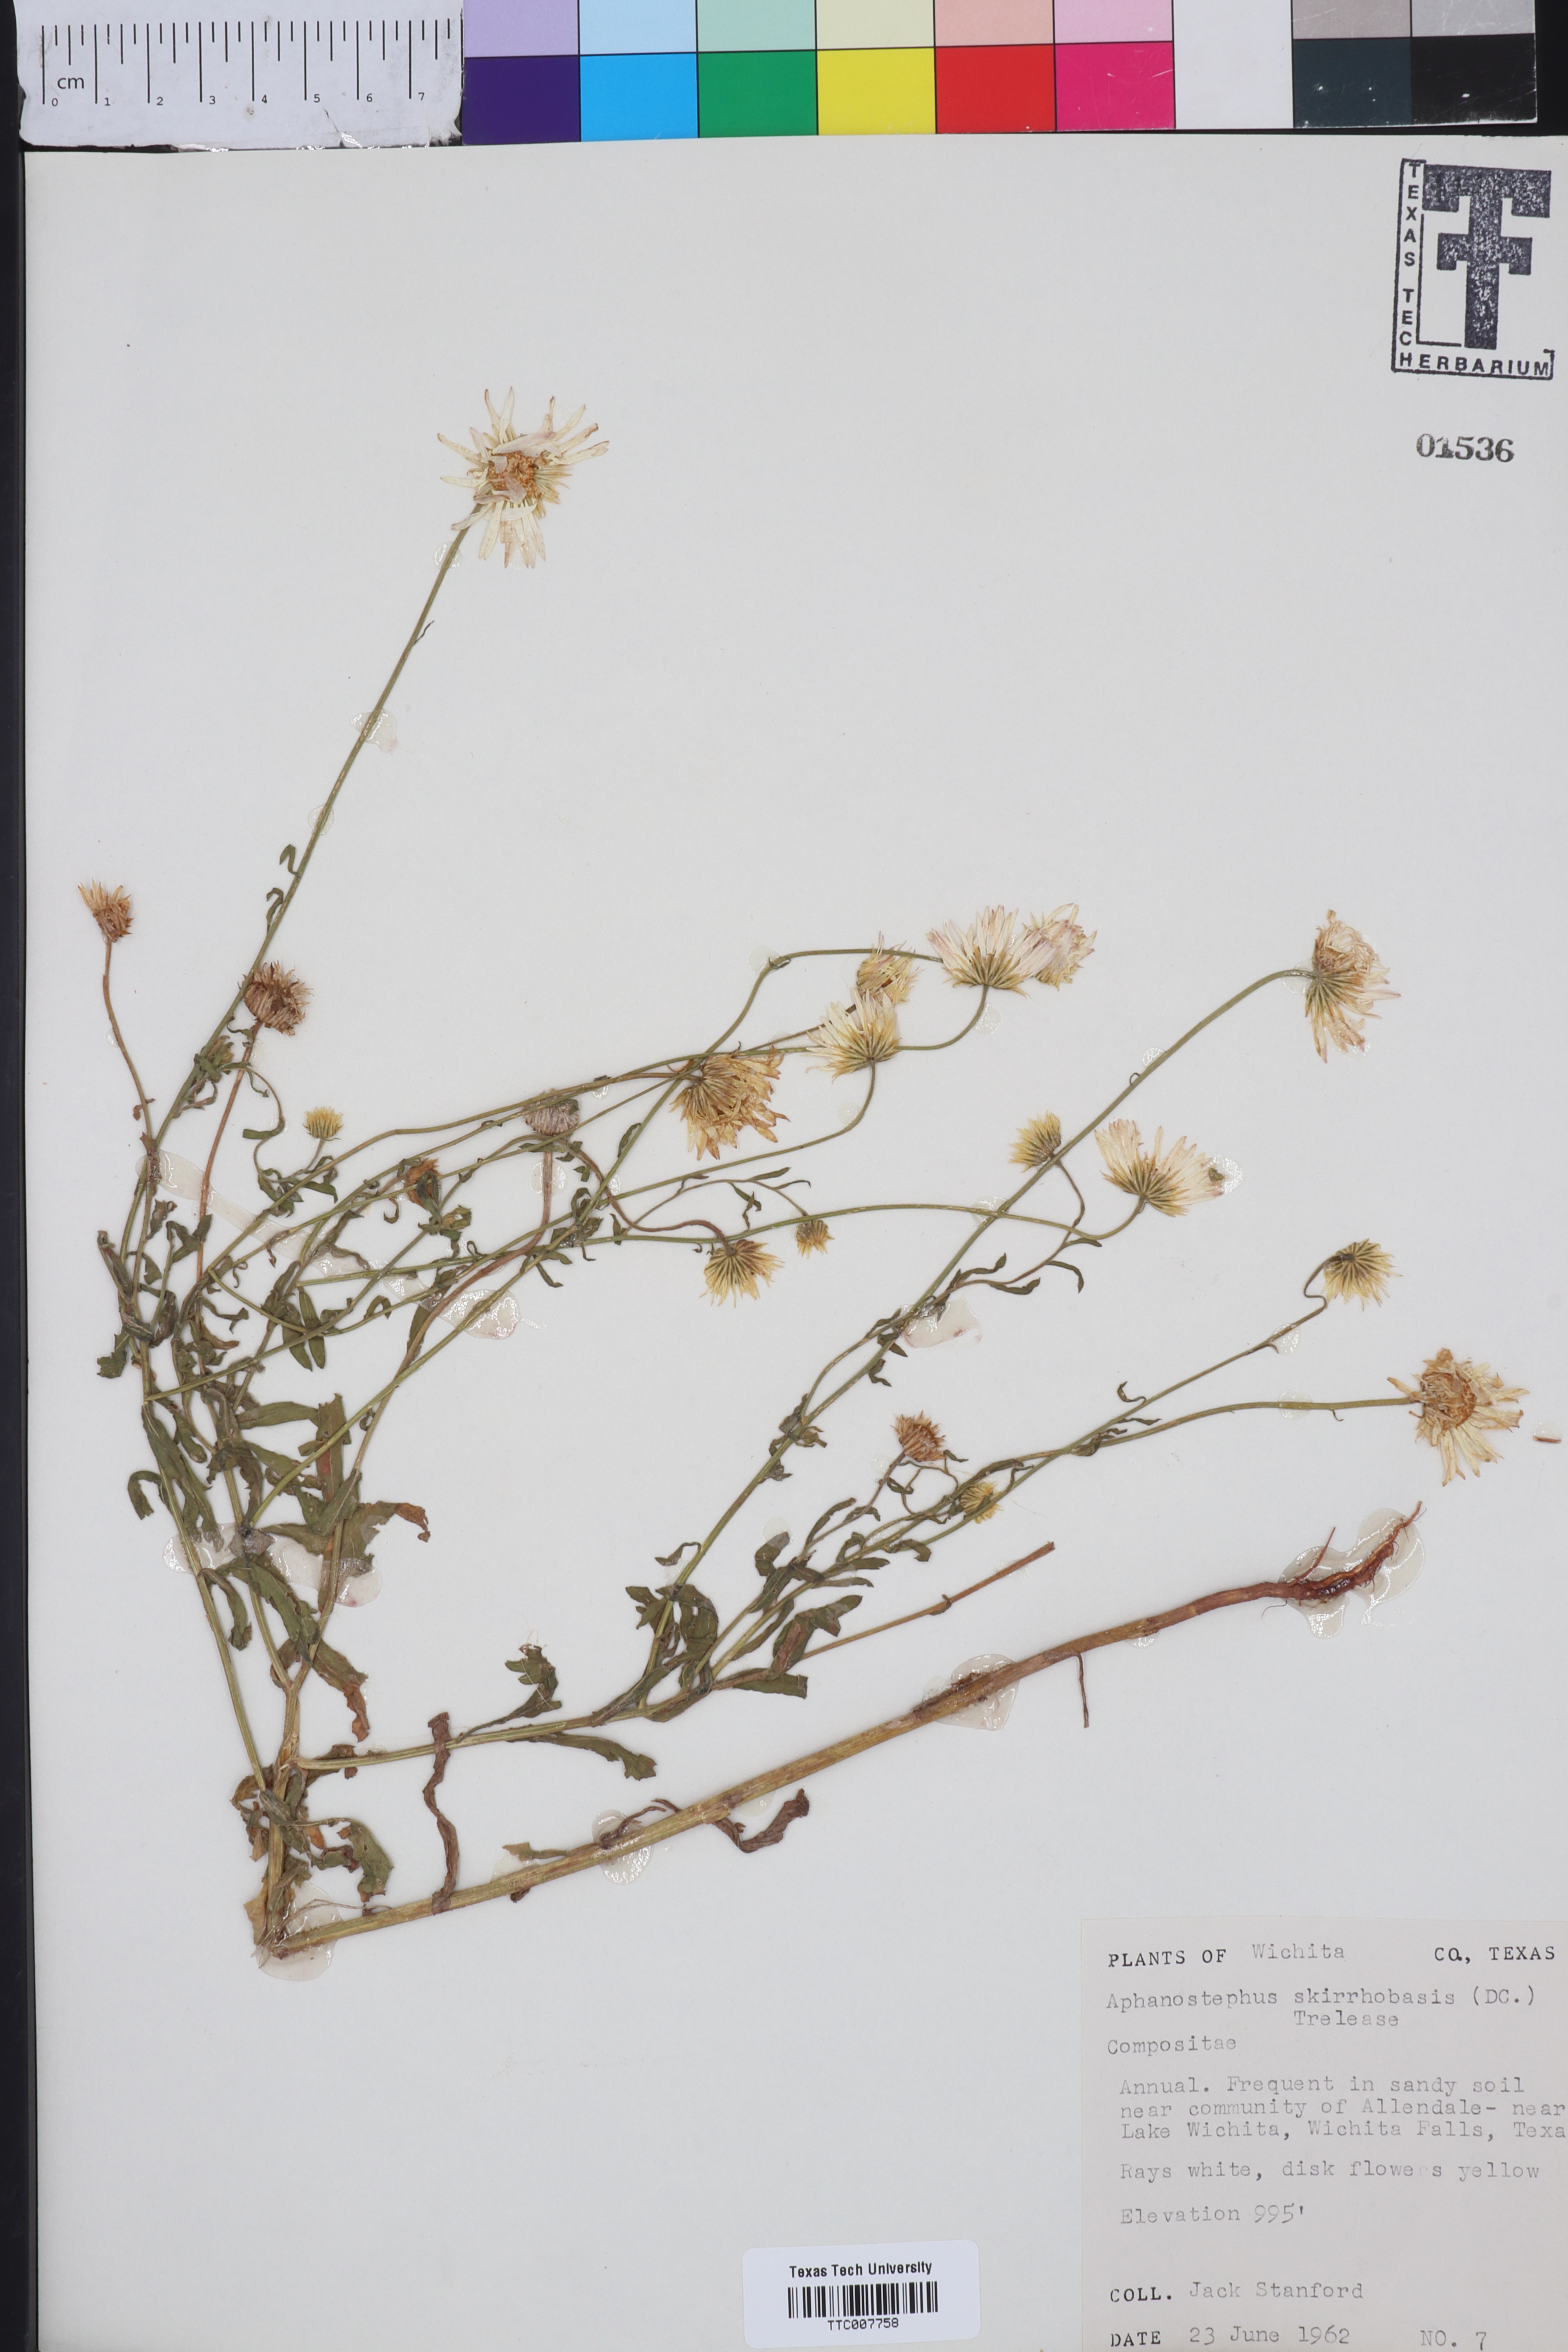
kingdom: Plantae
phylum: Tracheophyta
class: Magnoliopsida
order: Asterales
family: Asteraceae
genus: Aphanostephus
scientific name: Aphanostephus skirrhobasis
